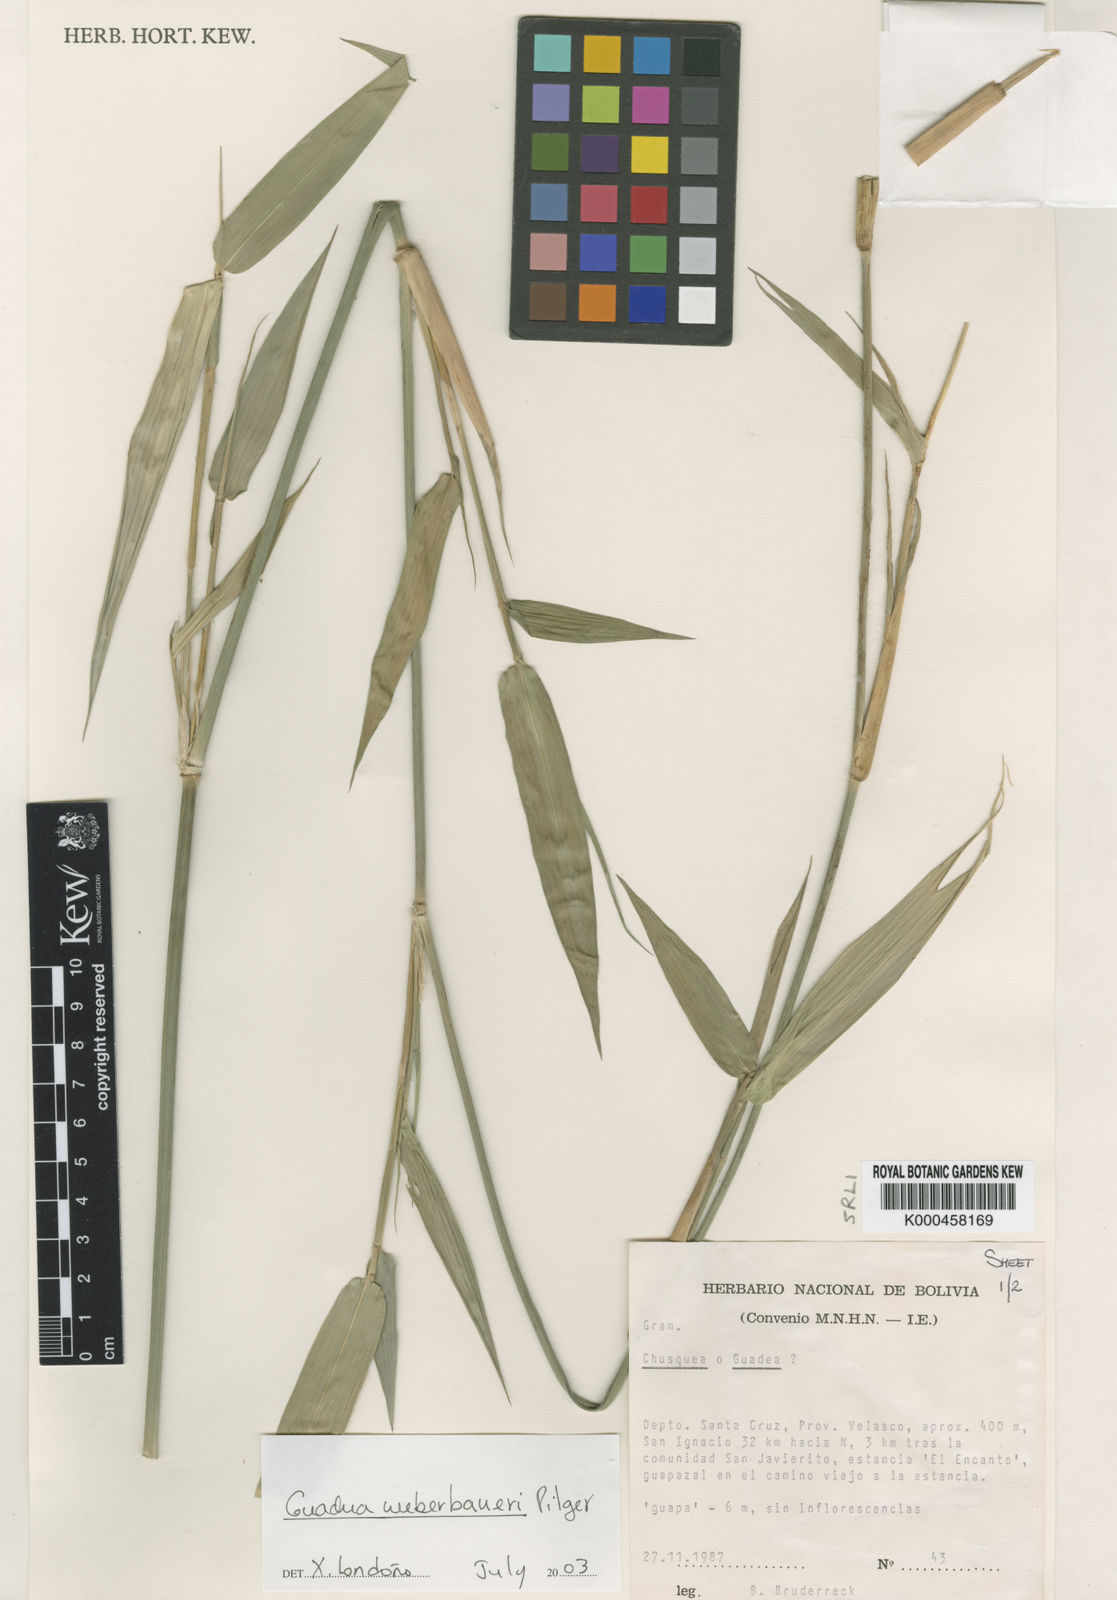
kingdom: Plantae
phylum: Tracheophyta
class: Liliopsida
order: Poales
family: Poaceae
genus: Guadua
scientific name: Guadua paniculata
